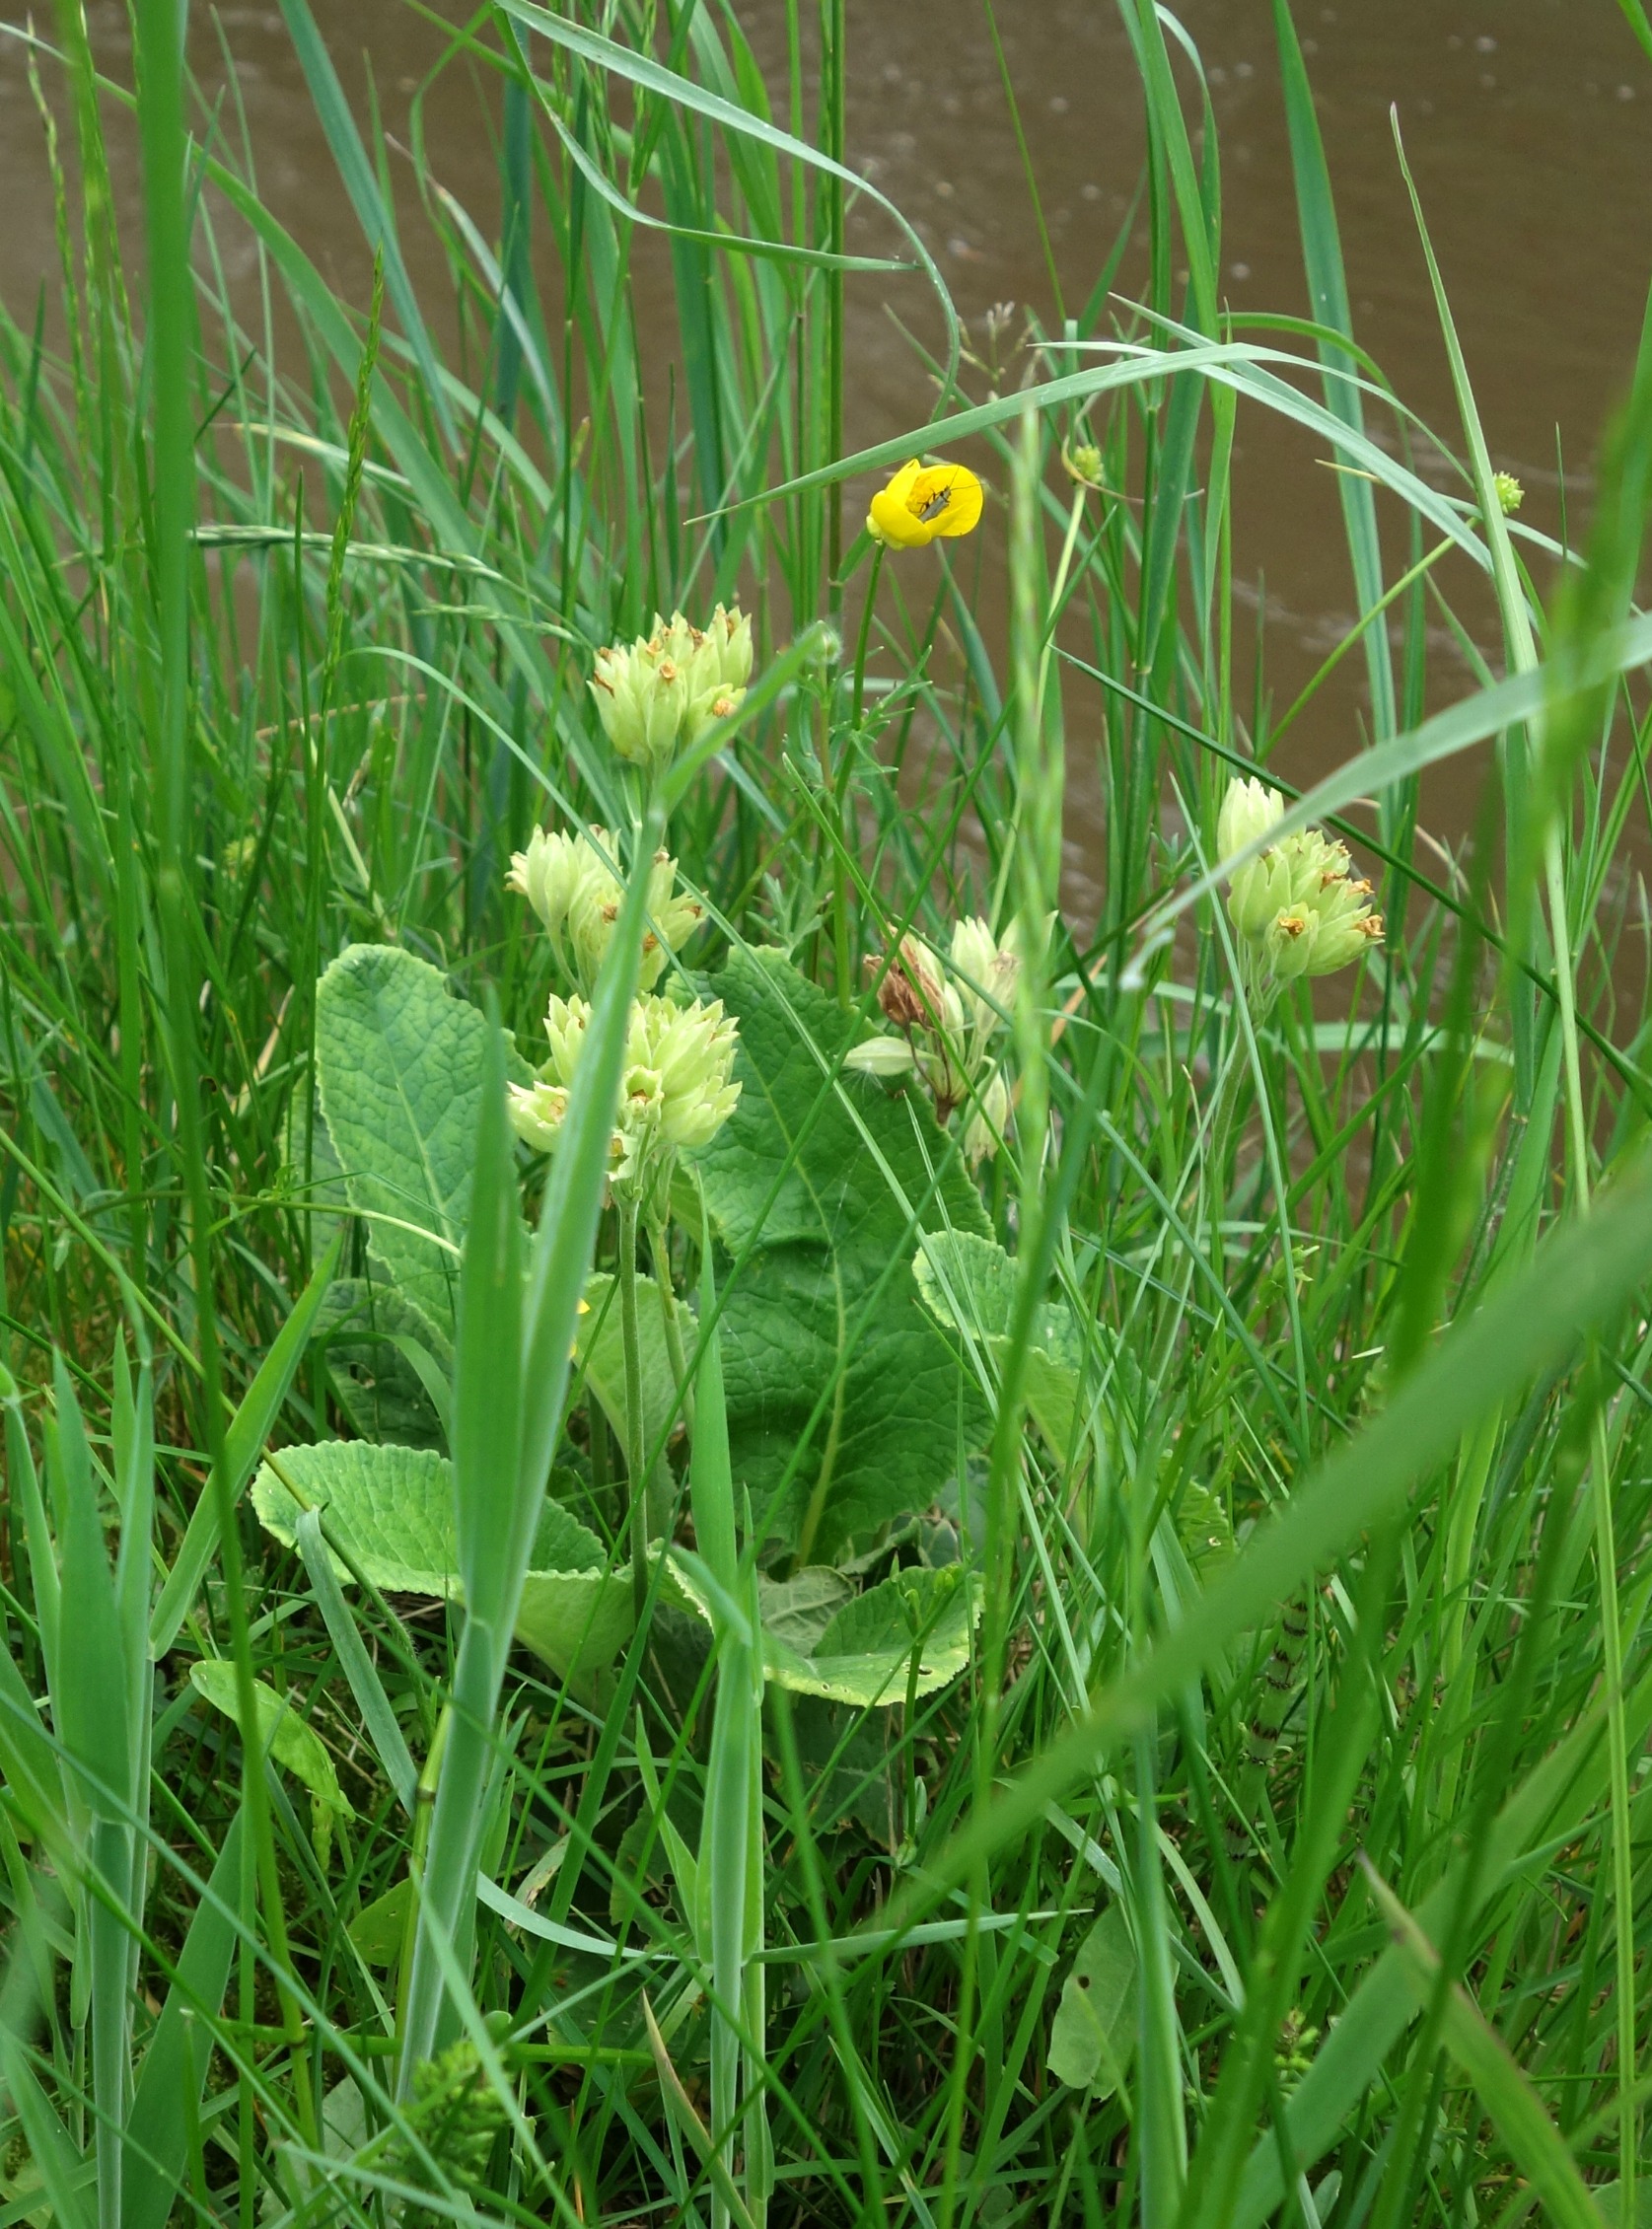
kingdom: Plantae
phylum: Tracheophyta
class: Magnoliopsida
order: Ericales
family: Primulaceae
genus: Primula
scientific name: Primula veris
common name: Hulkravet kodriver
